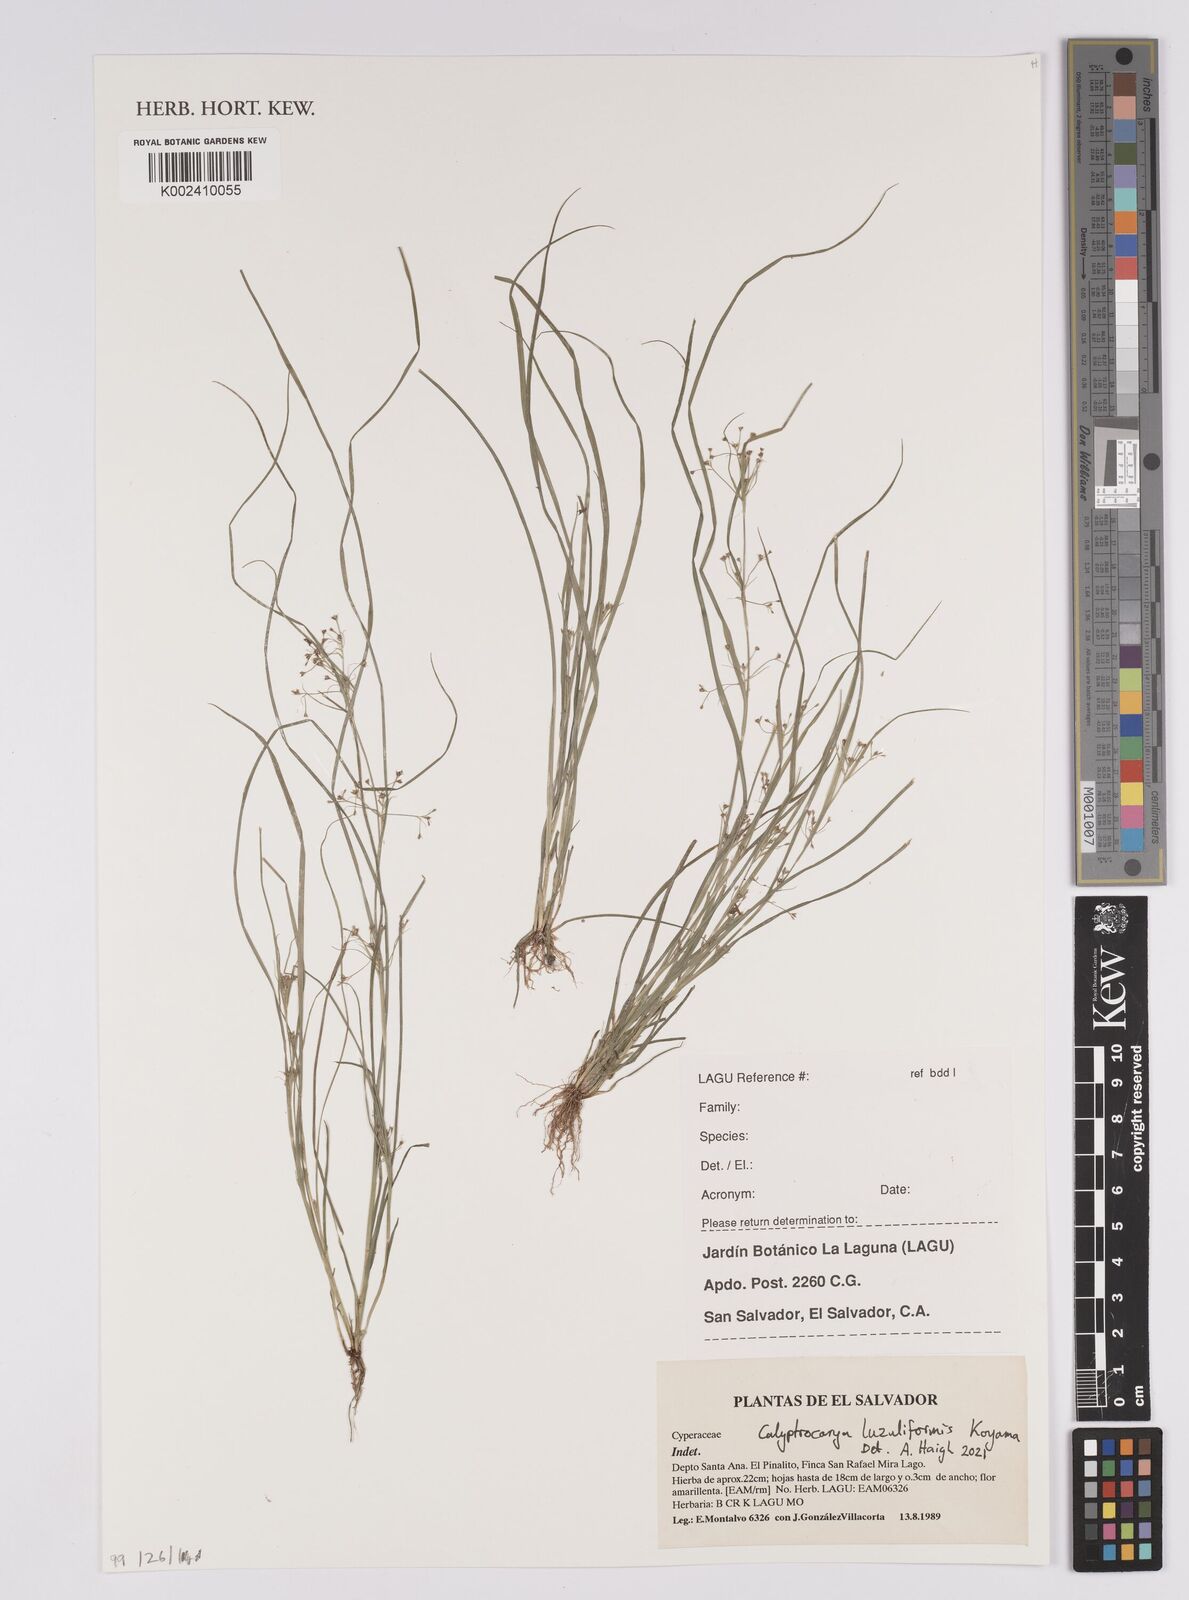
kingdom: Plantae
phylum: Tracheophyta
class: Liliopsida
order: Poales
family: Cyperaceae
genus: Calyptrocarya
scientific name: Calyptrocarya luzuliformis
